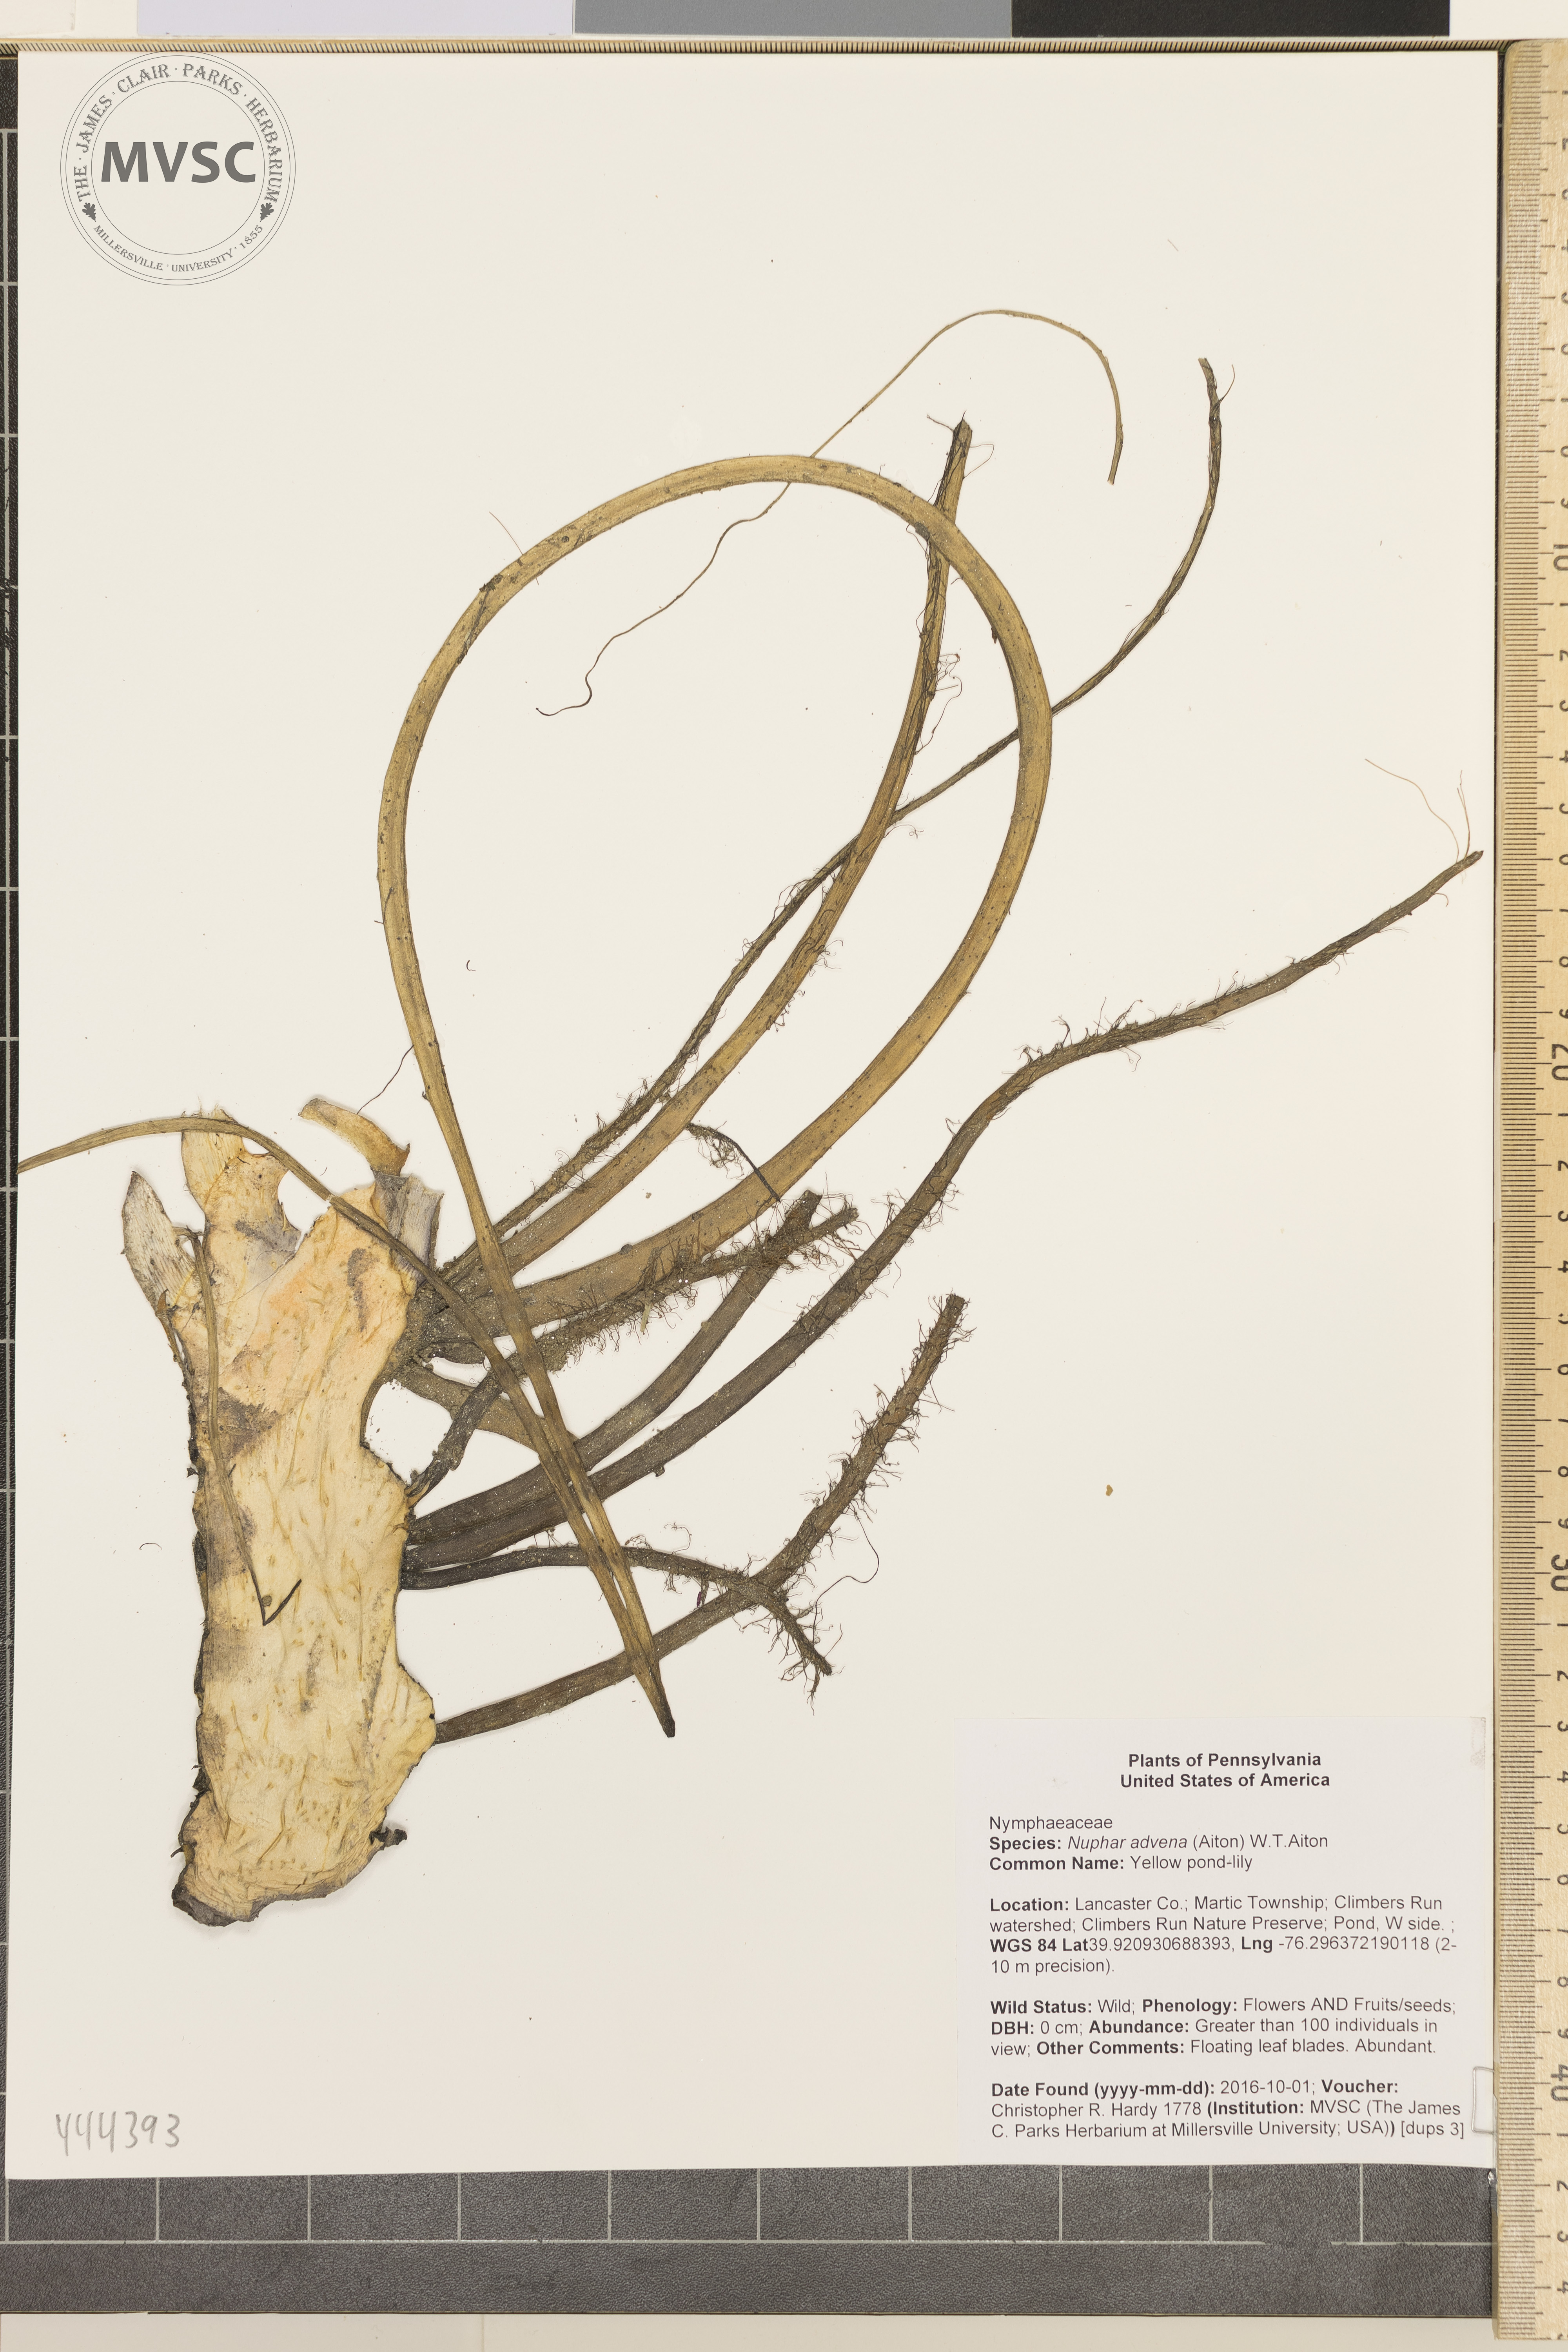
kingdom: Plantae
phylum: Tracheophyta
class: Magnoliopsida
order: Nymphaeales
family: Nymphaeaceae
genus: Nuphar
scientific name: Nuphar advena
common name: Yellow pond-lily
